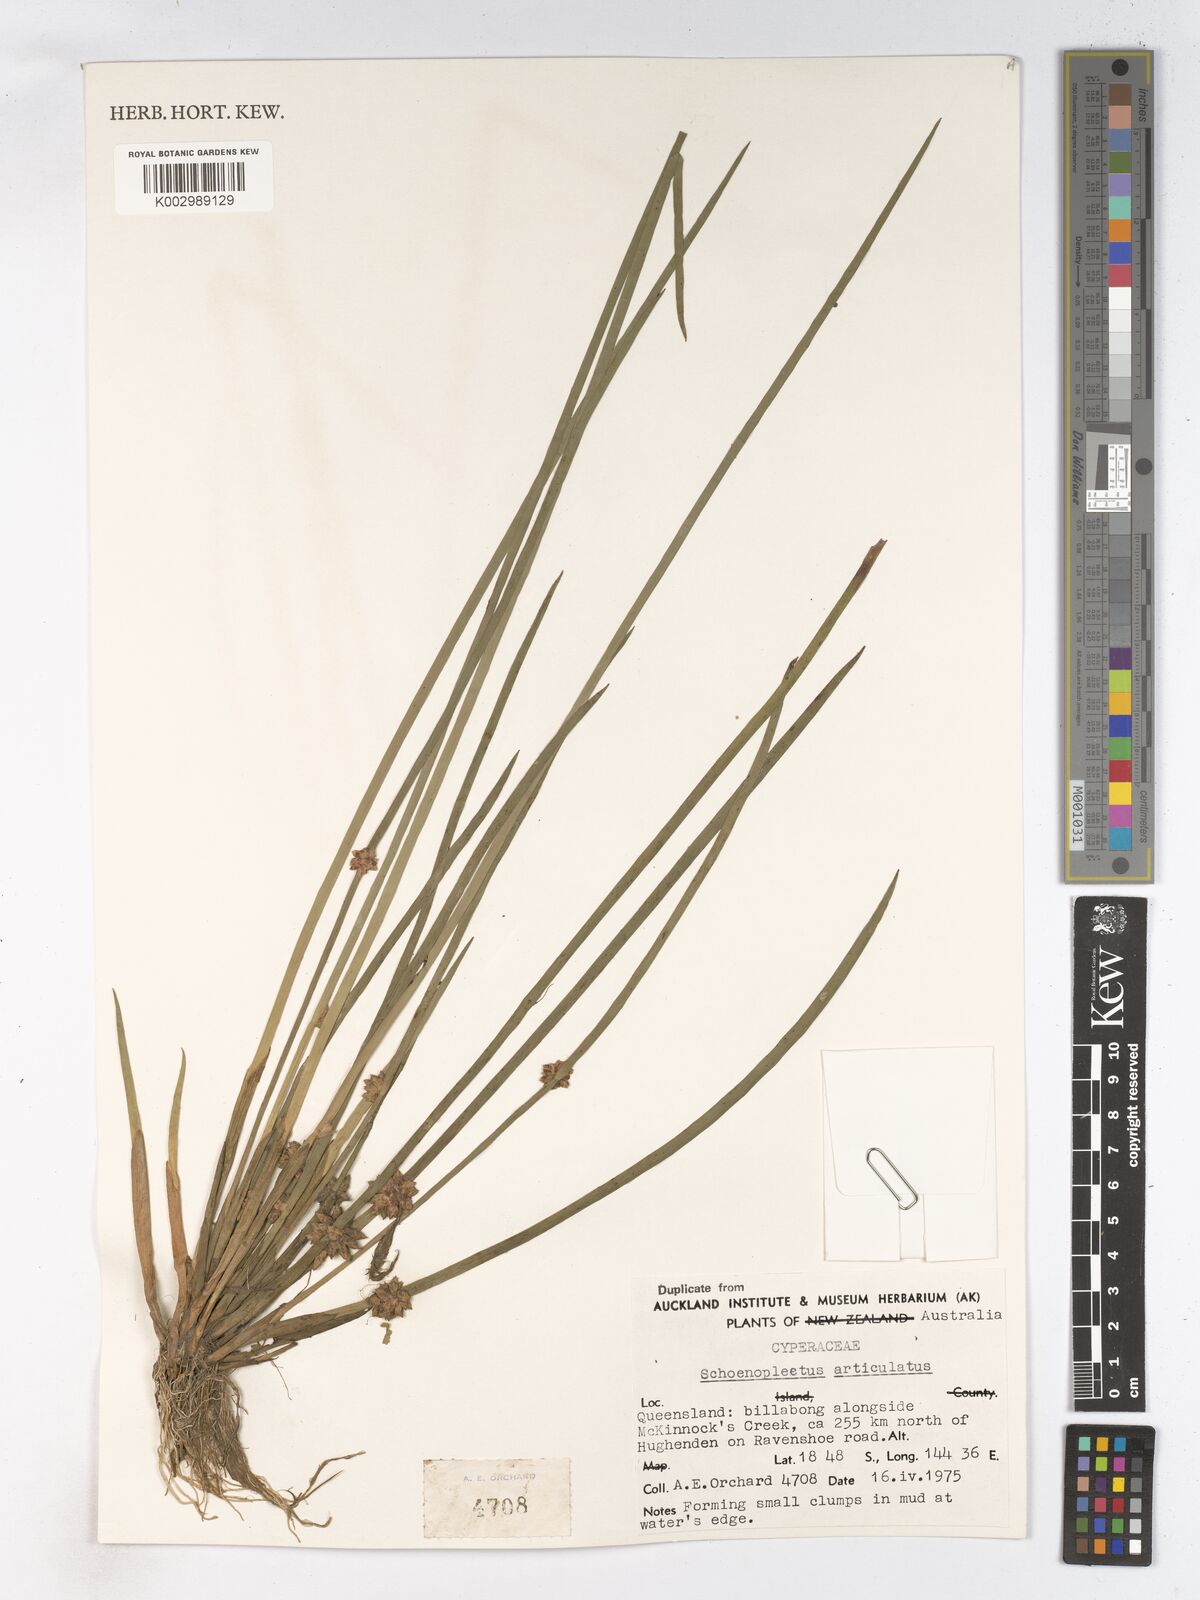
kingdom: Plantae
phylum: Tracheophyta
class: Liliopsida
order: Poales
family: Cyperaceae
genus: Schoenoplectiella
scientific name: Schoenoplectiella articulata
